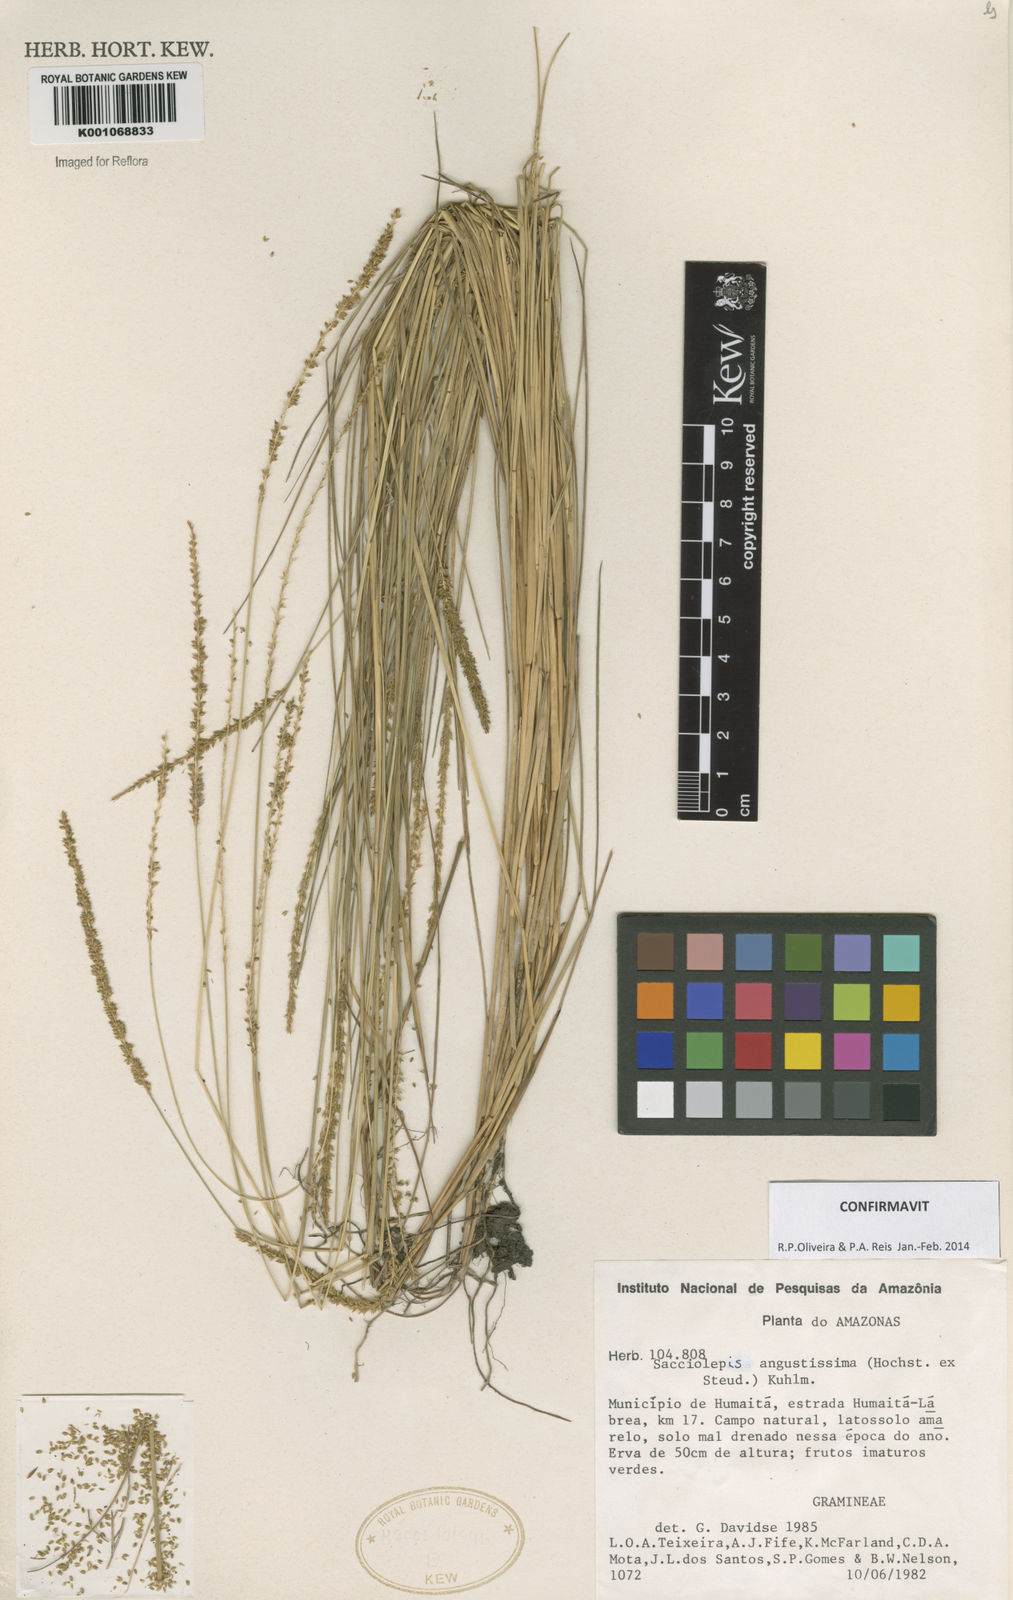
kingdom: Plantae
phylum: Tracheophyta
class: Liliopsida
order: Poales
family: Poaceae
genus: Sacciolepis
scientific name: Sacciolepis angustissima
